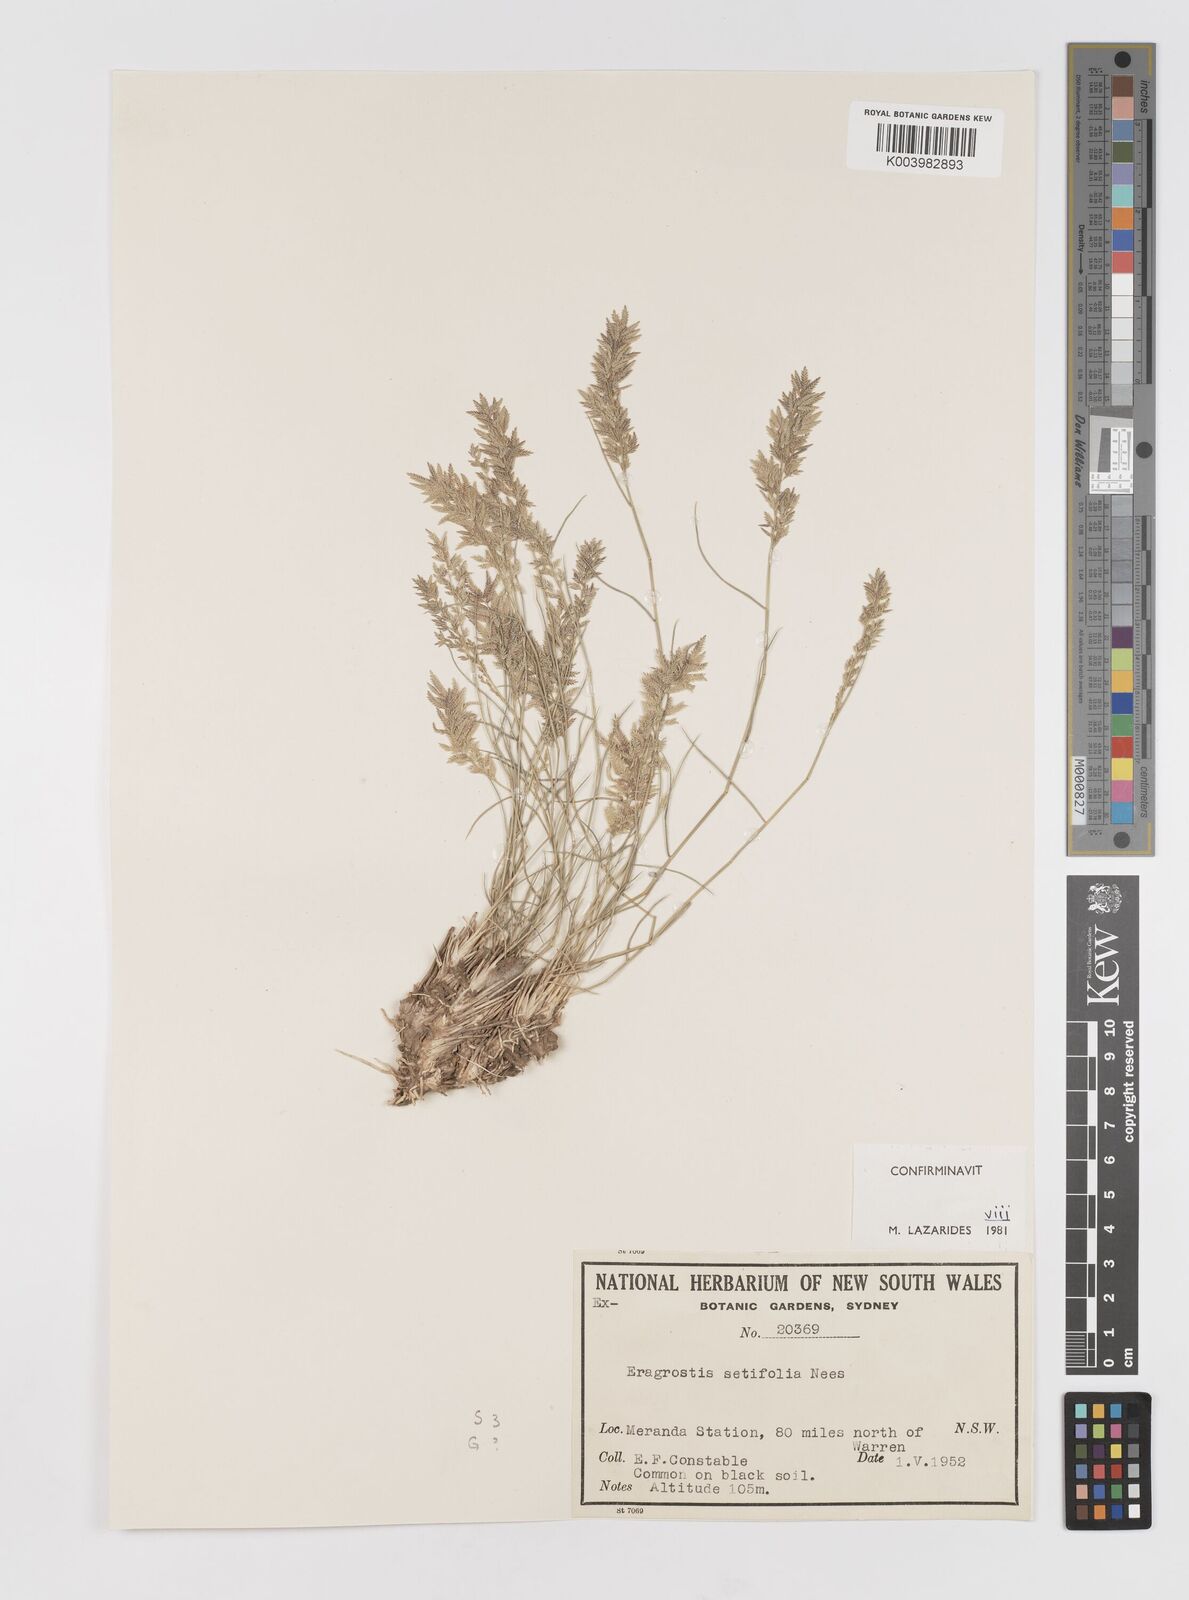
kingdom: Plantae
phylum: Tracheophyta
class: Liliopsida
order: Poales
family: Poaceae
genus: Eragrostis
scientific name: Eragrostis setifolia
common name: Bristleleaf lovegrass
